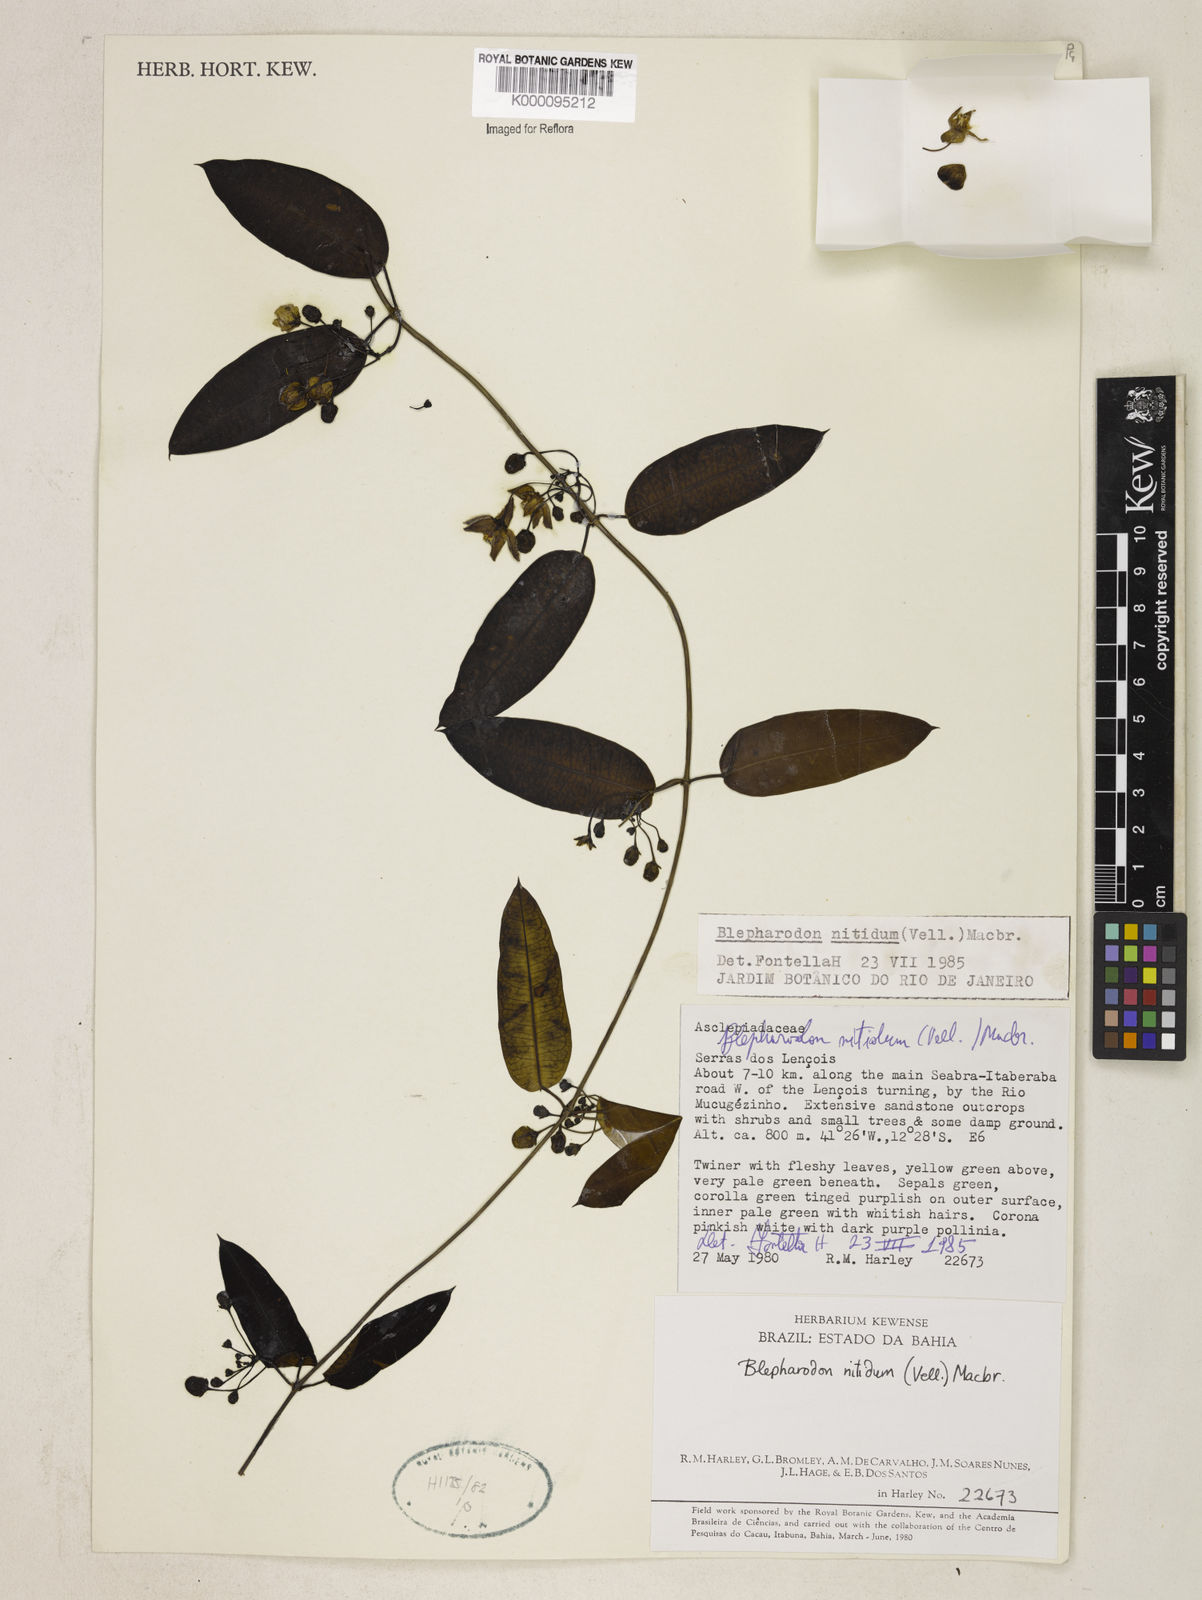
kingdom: Plantae
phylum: Tracheophyta
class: Magnoliopsida
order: Gentianales
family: Apocynaceae
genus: Blepharodon
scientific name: Blepharodon pictum
